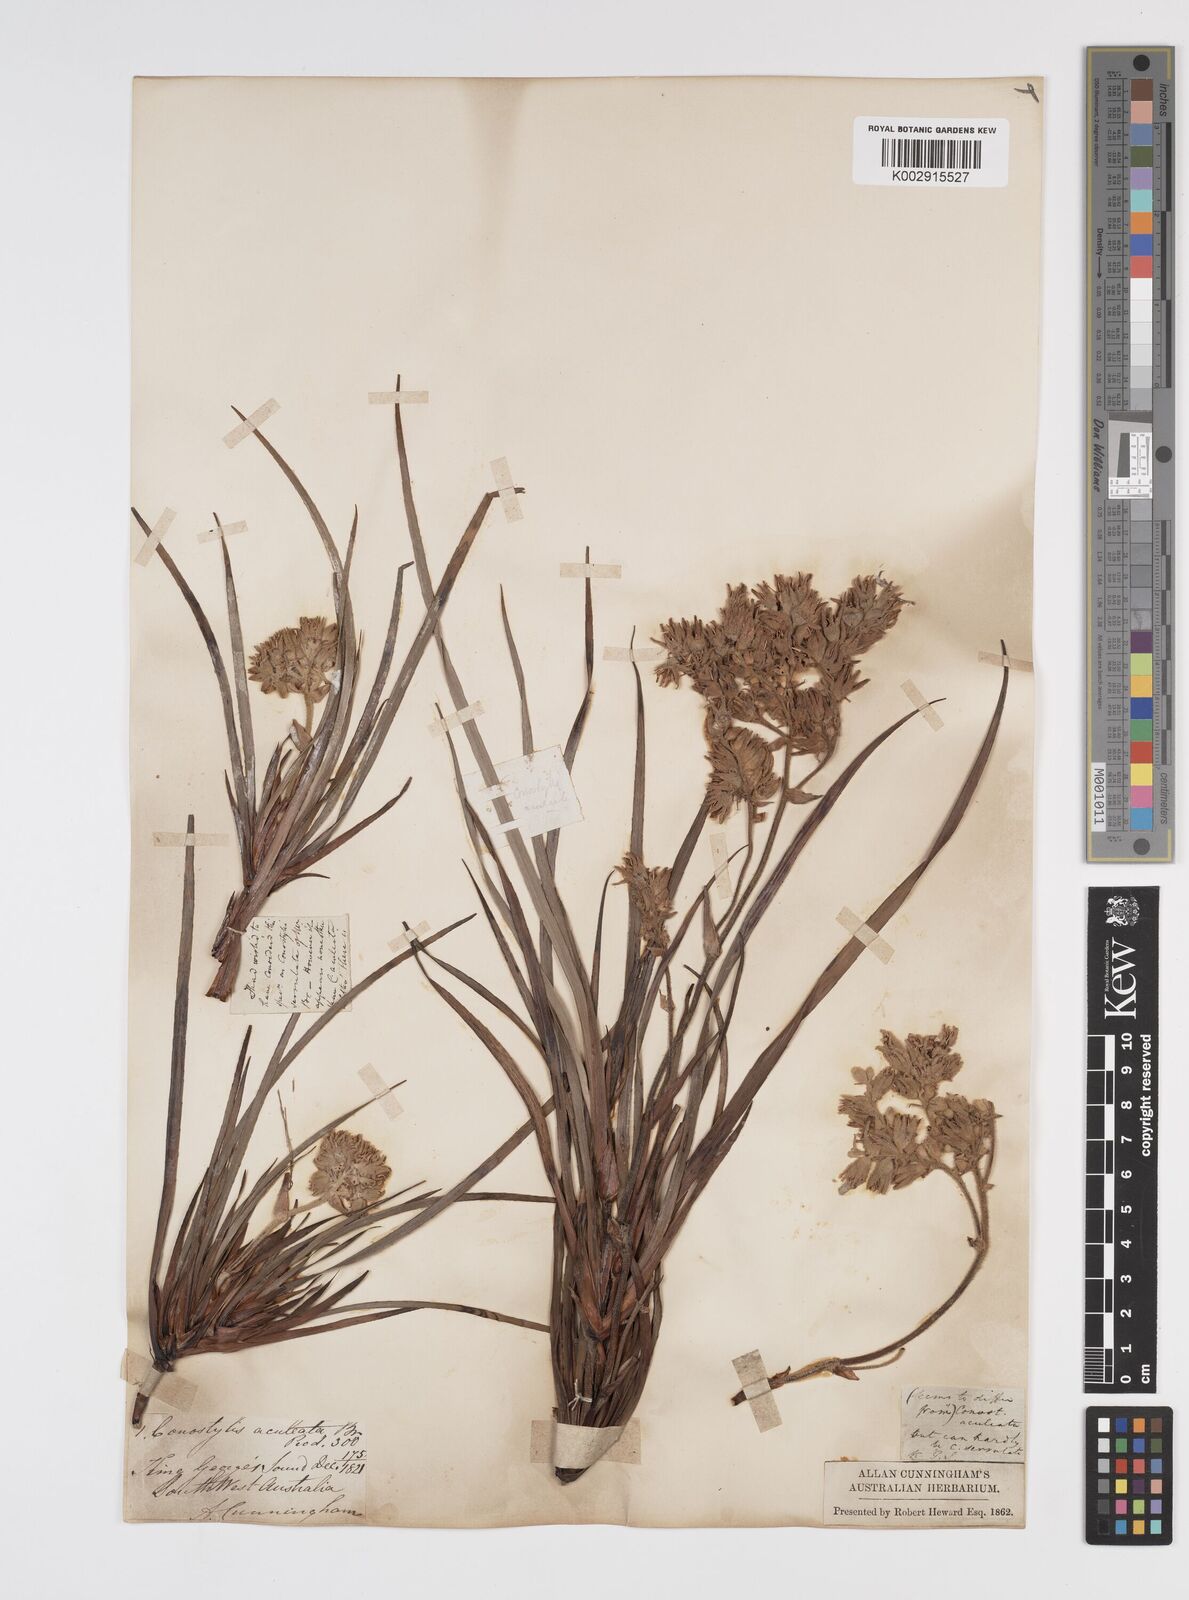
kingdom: Plantae
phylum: Tracheophyta
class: Liliopsida
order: Commelinales
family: Haemodoraceae
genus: Conostylis
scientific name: Conostylis aculeata
